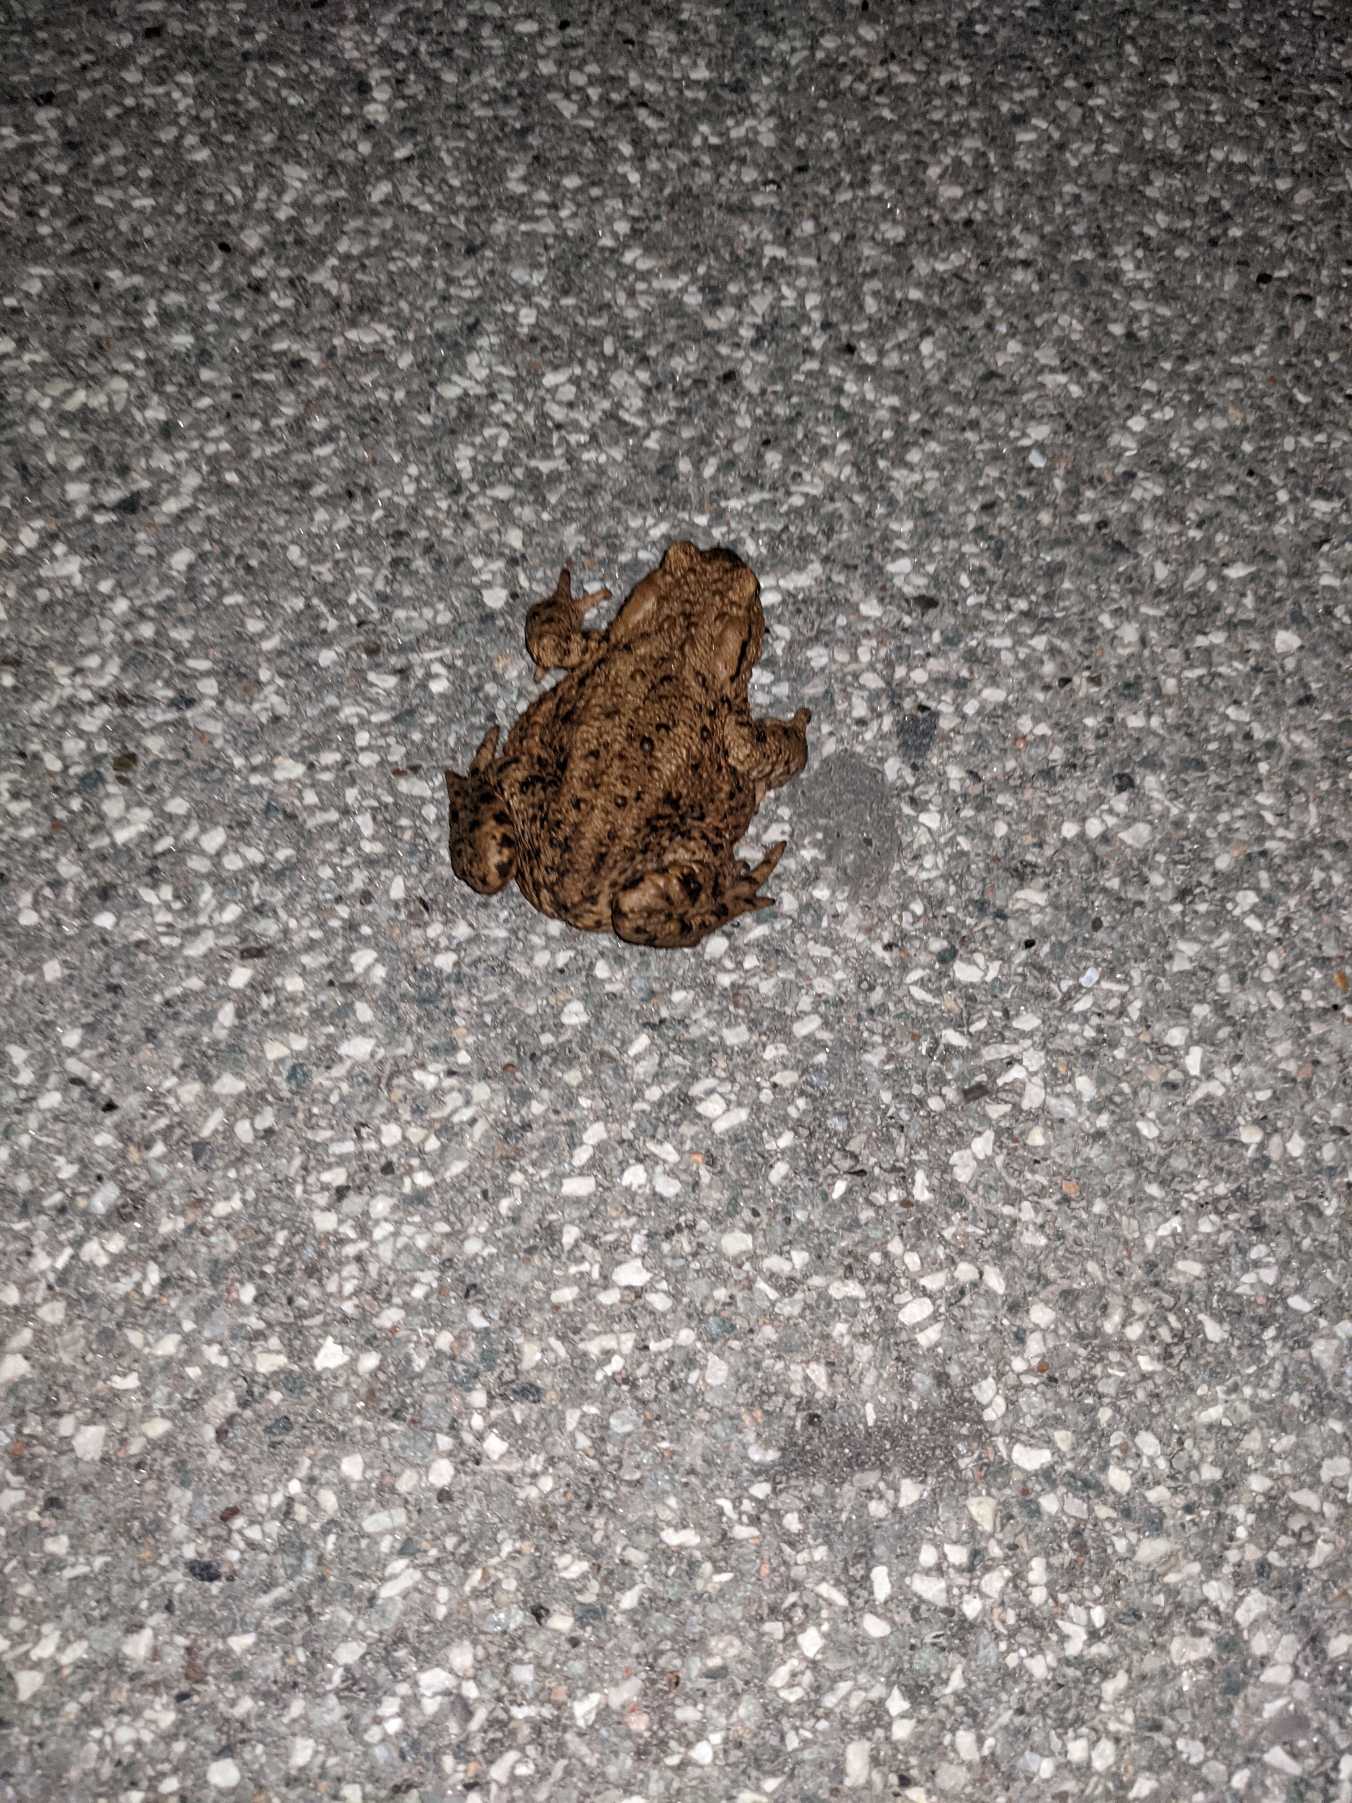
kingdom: Animalia
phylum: Chordata
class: Amphibia
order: Anura
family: Bufonidae
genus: Bufo
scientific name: Bufo bufo
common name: Skrubtudse
